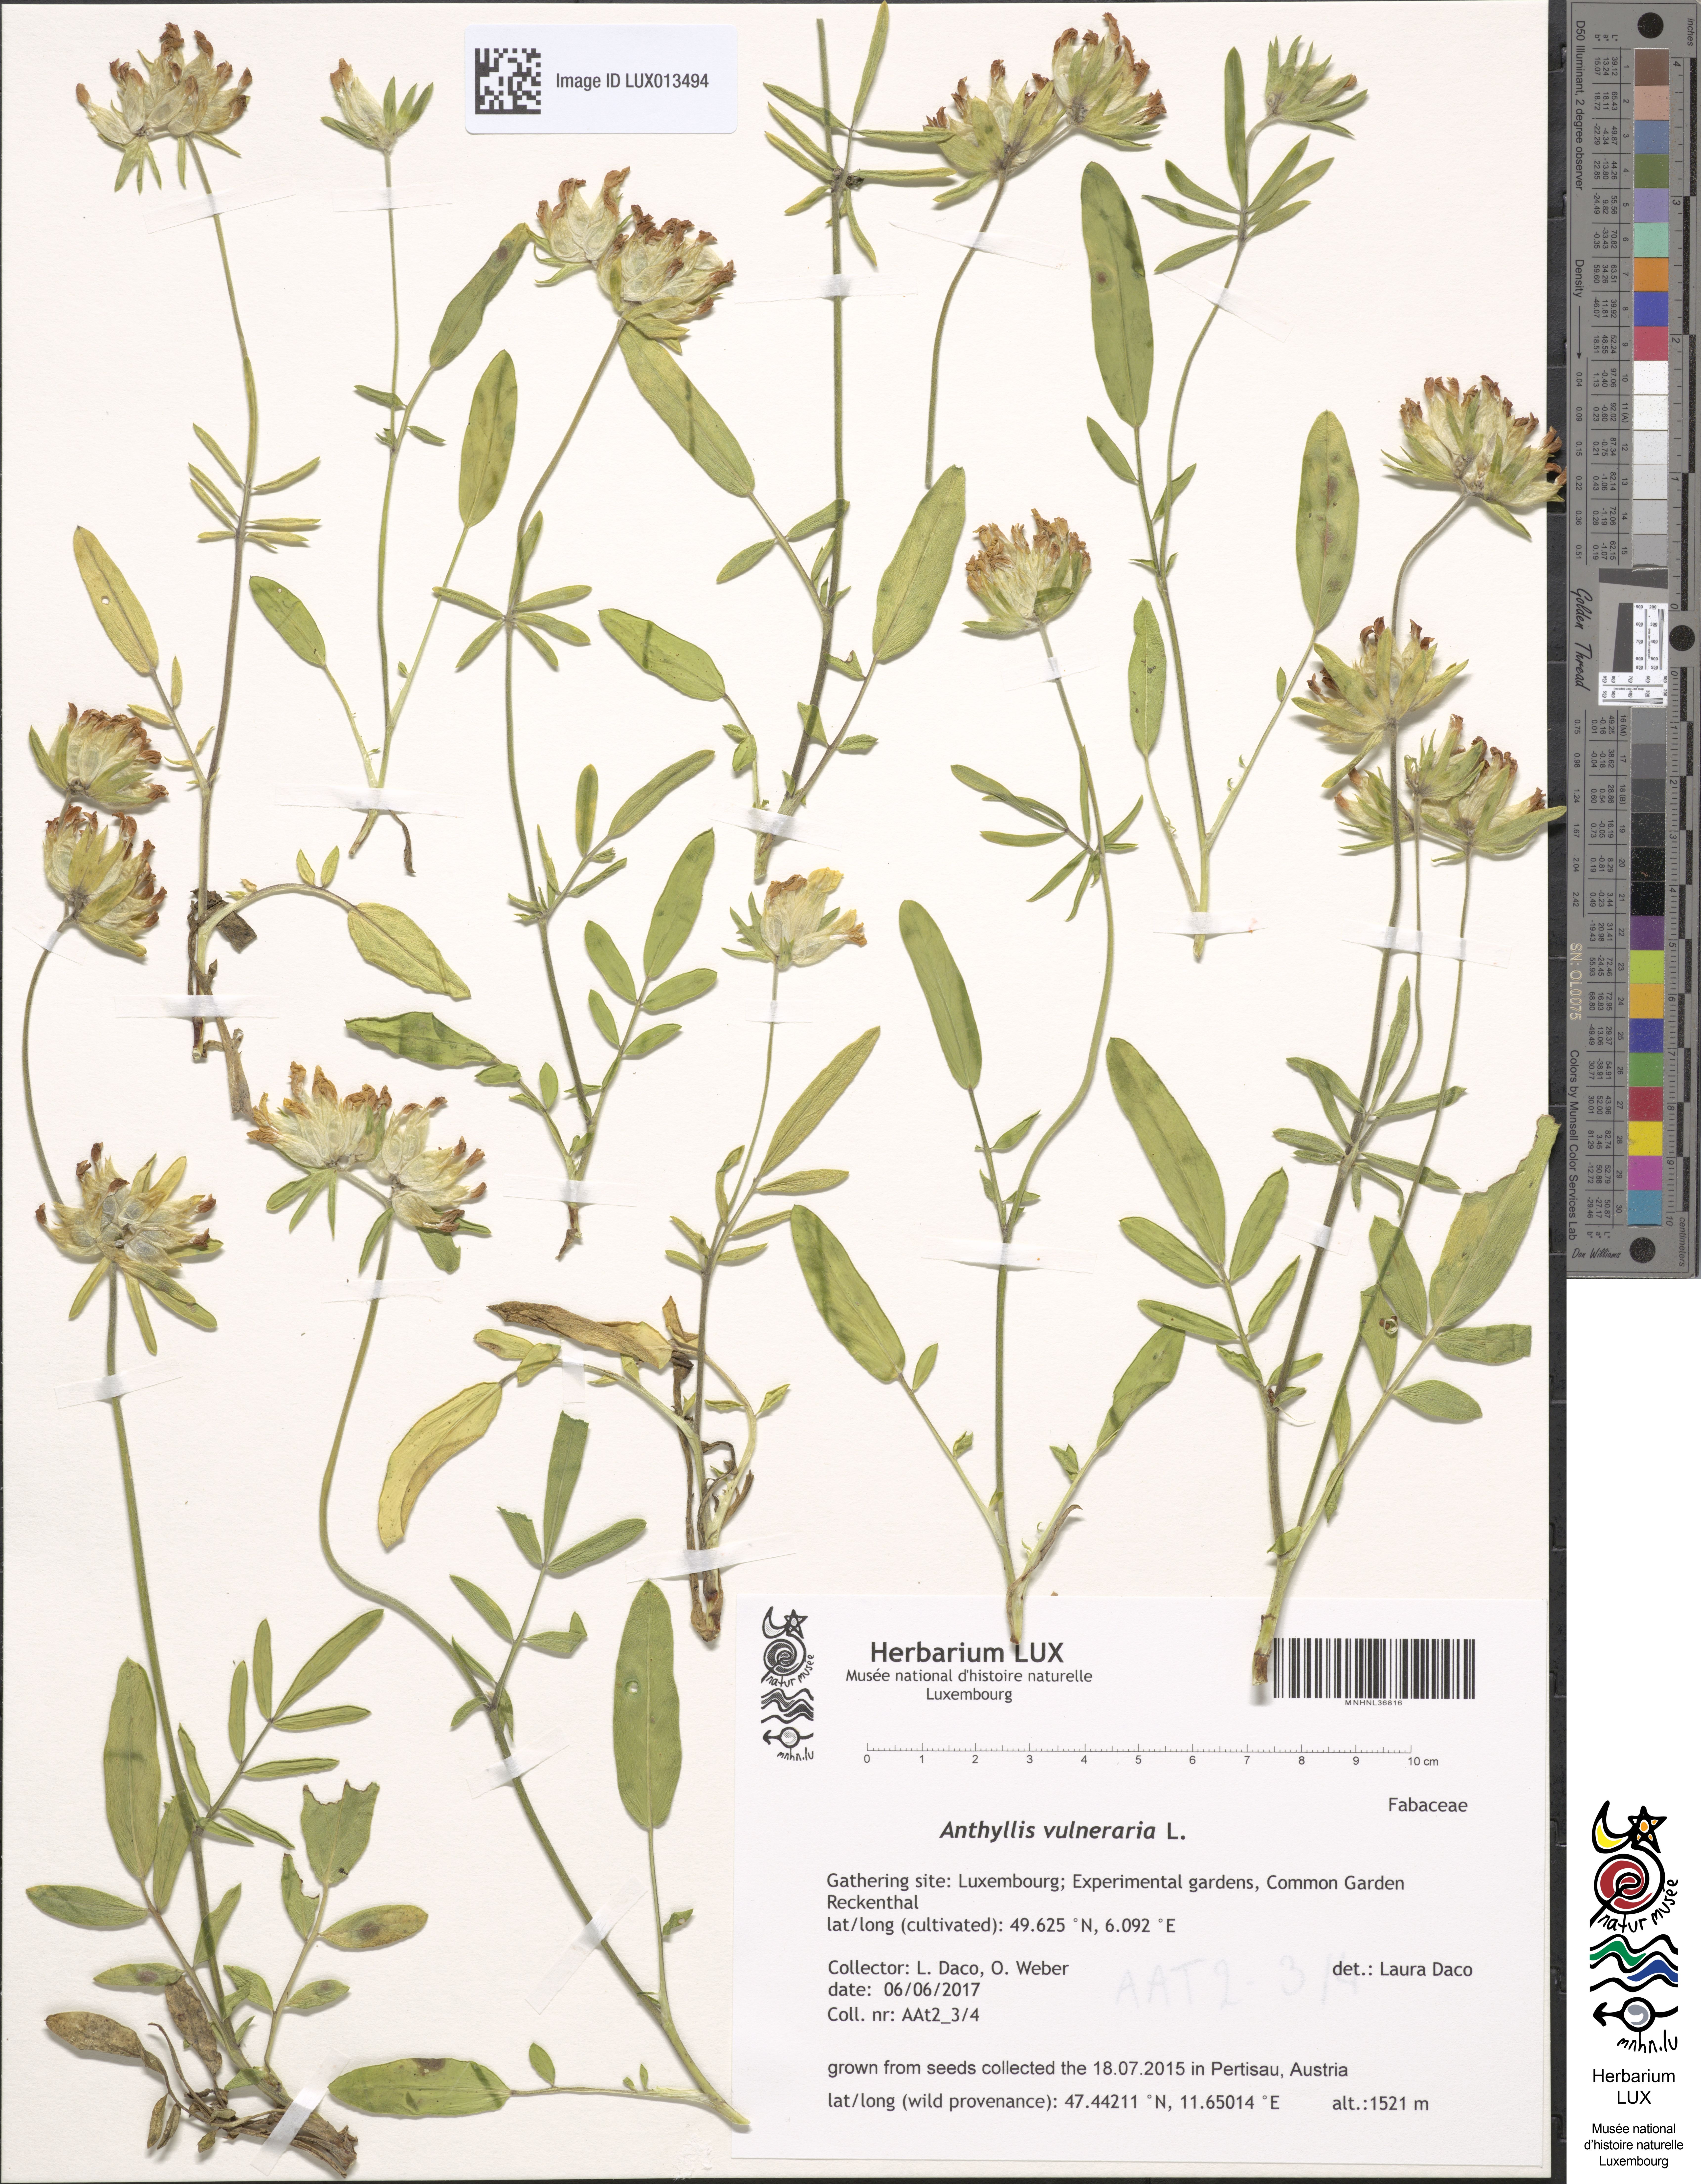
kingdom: Plantae
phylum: Tracheophyta
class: Magnoliopsida
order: Fabales
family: Fabaceae
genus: Anthyllis
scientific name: Anthyllis vulneraria
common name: Kidney vetch
